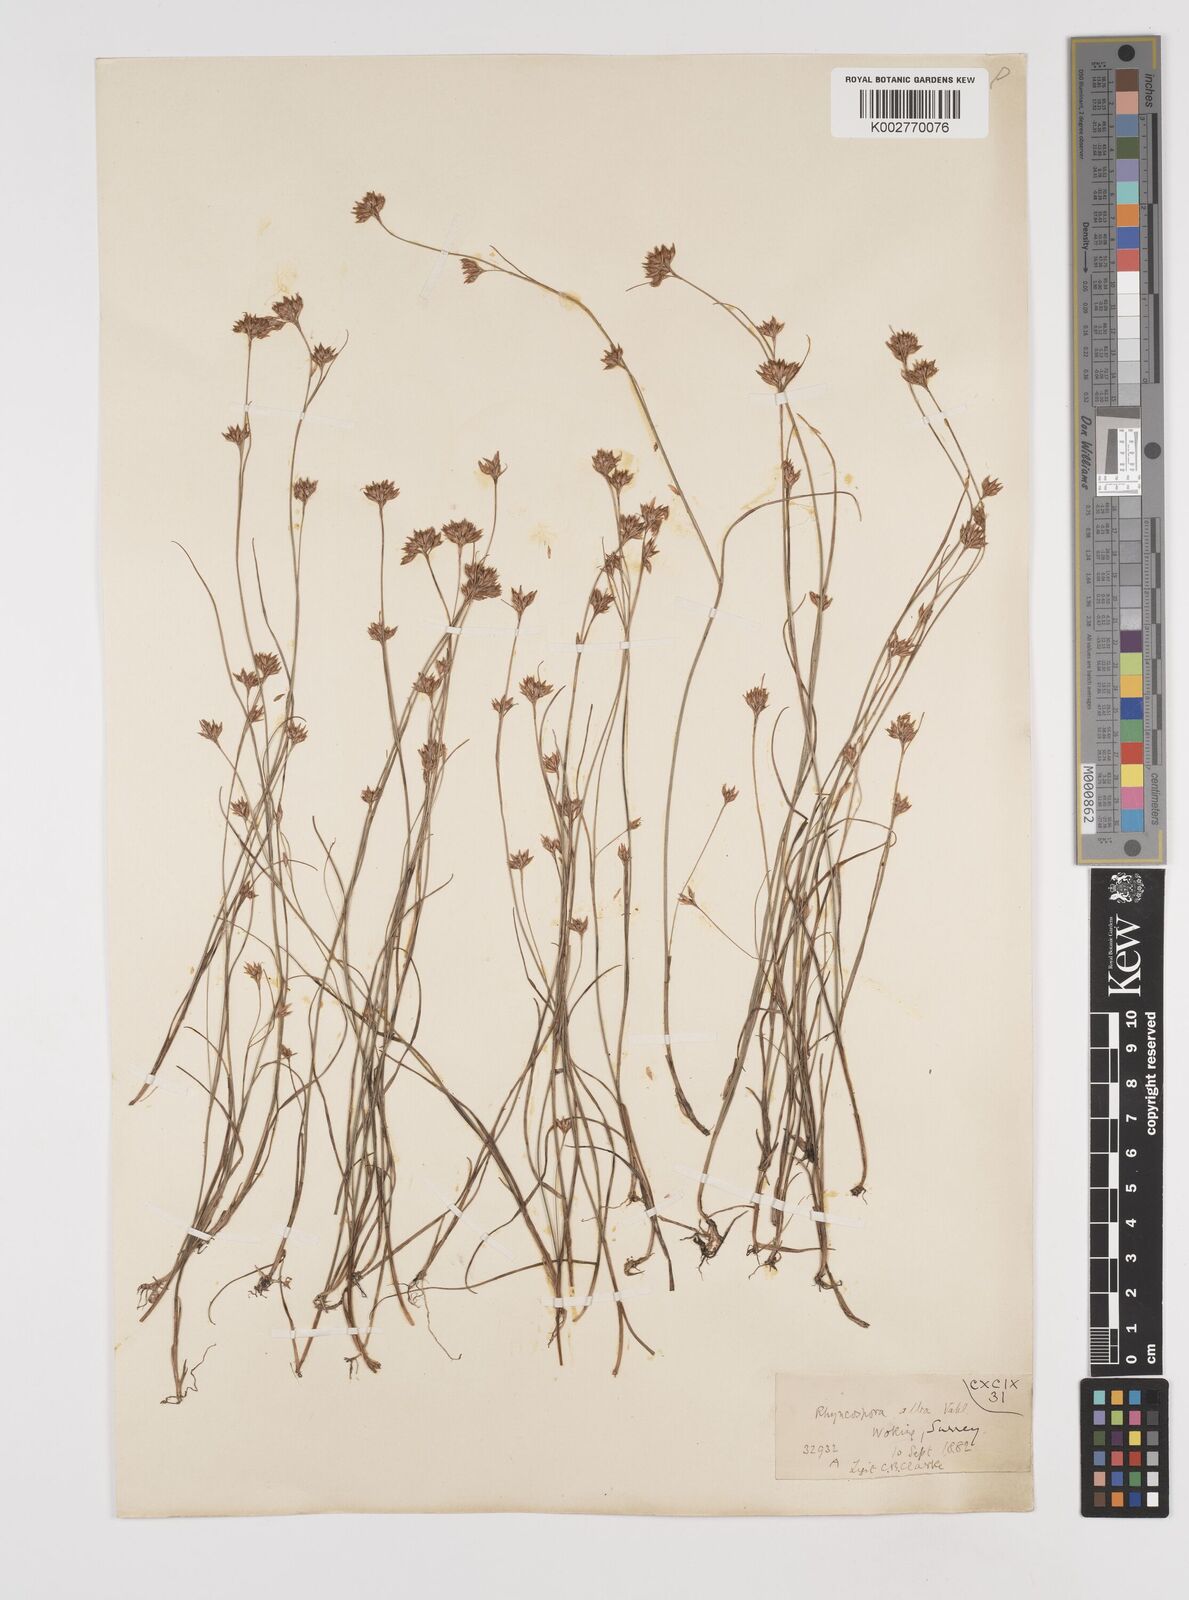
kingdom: Plantae
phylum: Tracheophyta
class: Liliopsida
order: Poales
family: Cyperaceae
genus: Rhynchospora
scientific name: Rhynchospora alba
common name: White beak-sedge
